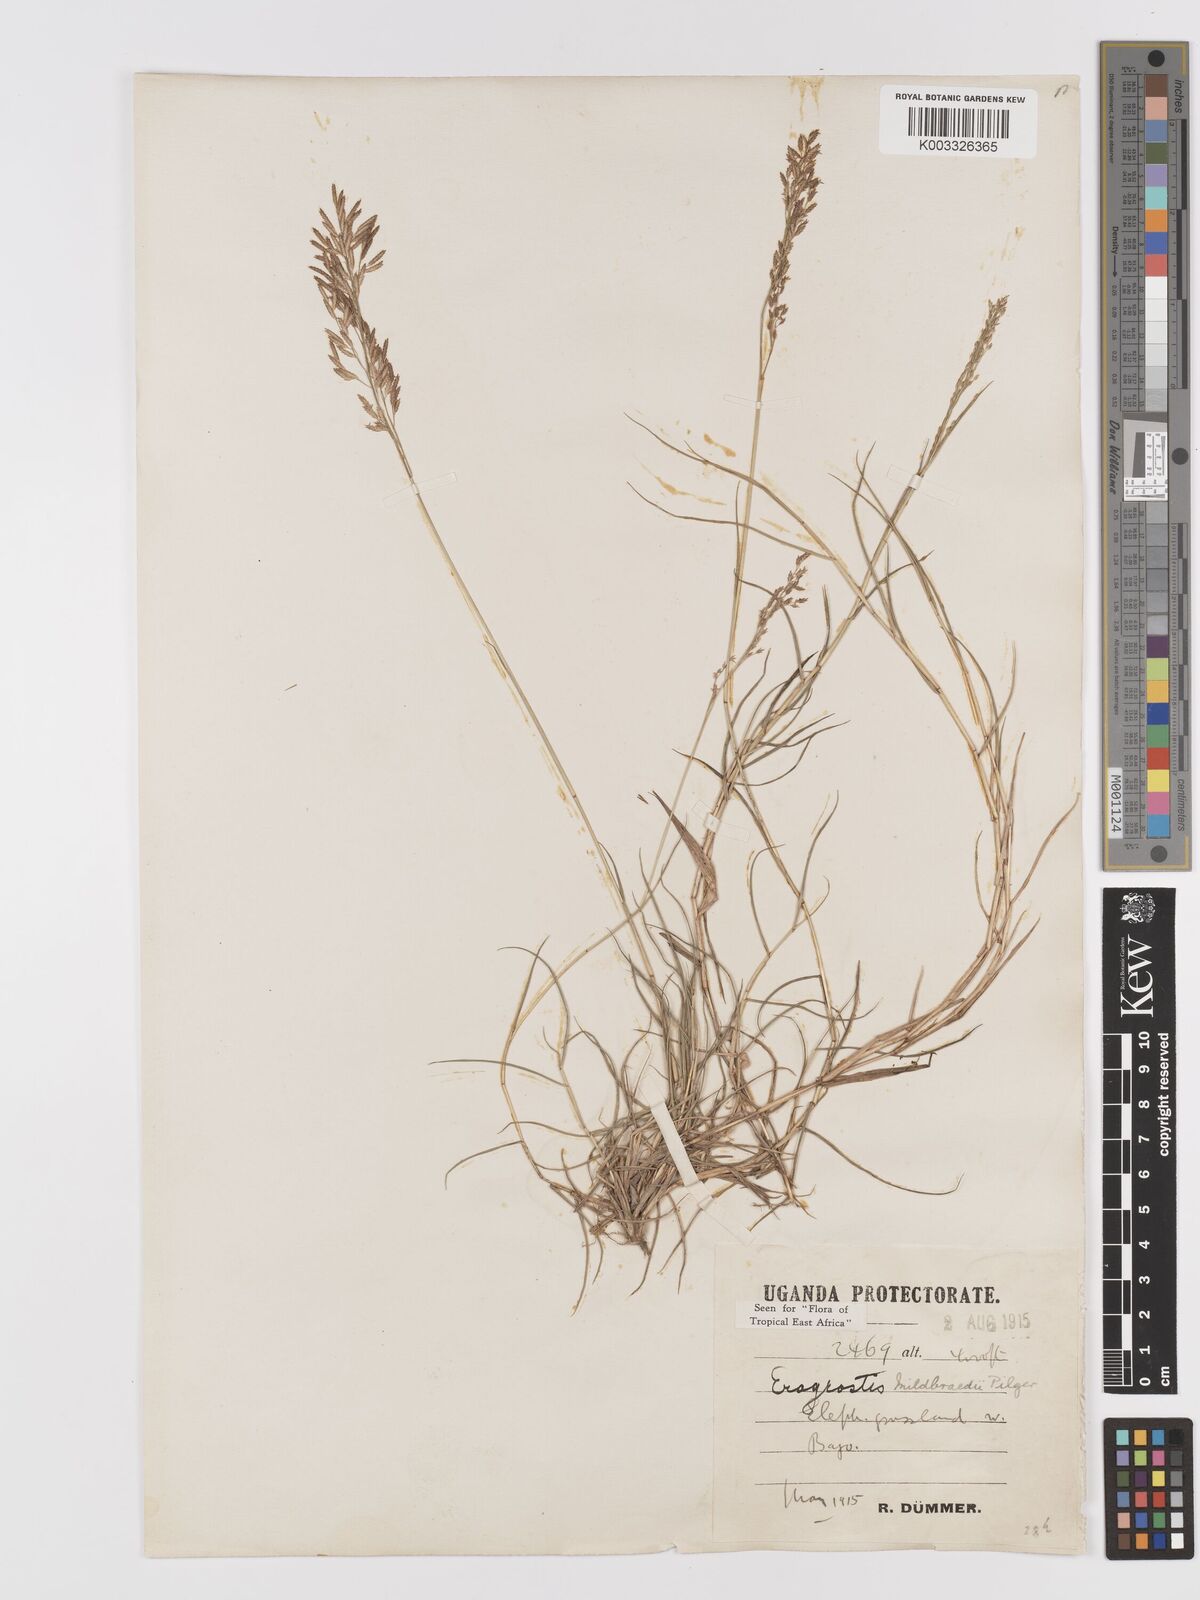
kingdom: Plantae
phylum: Tracheophyta
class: Liliopsida
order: Poales
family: Poaceae
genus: Eragrostis
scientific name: Eragrostis mildbraedii
